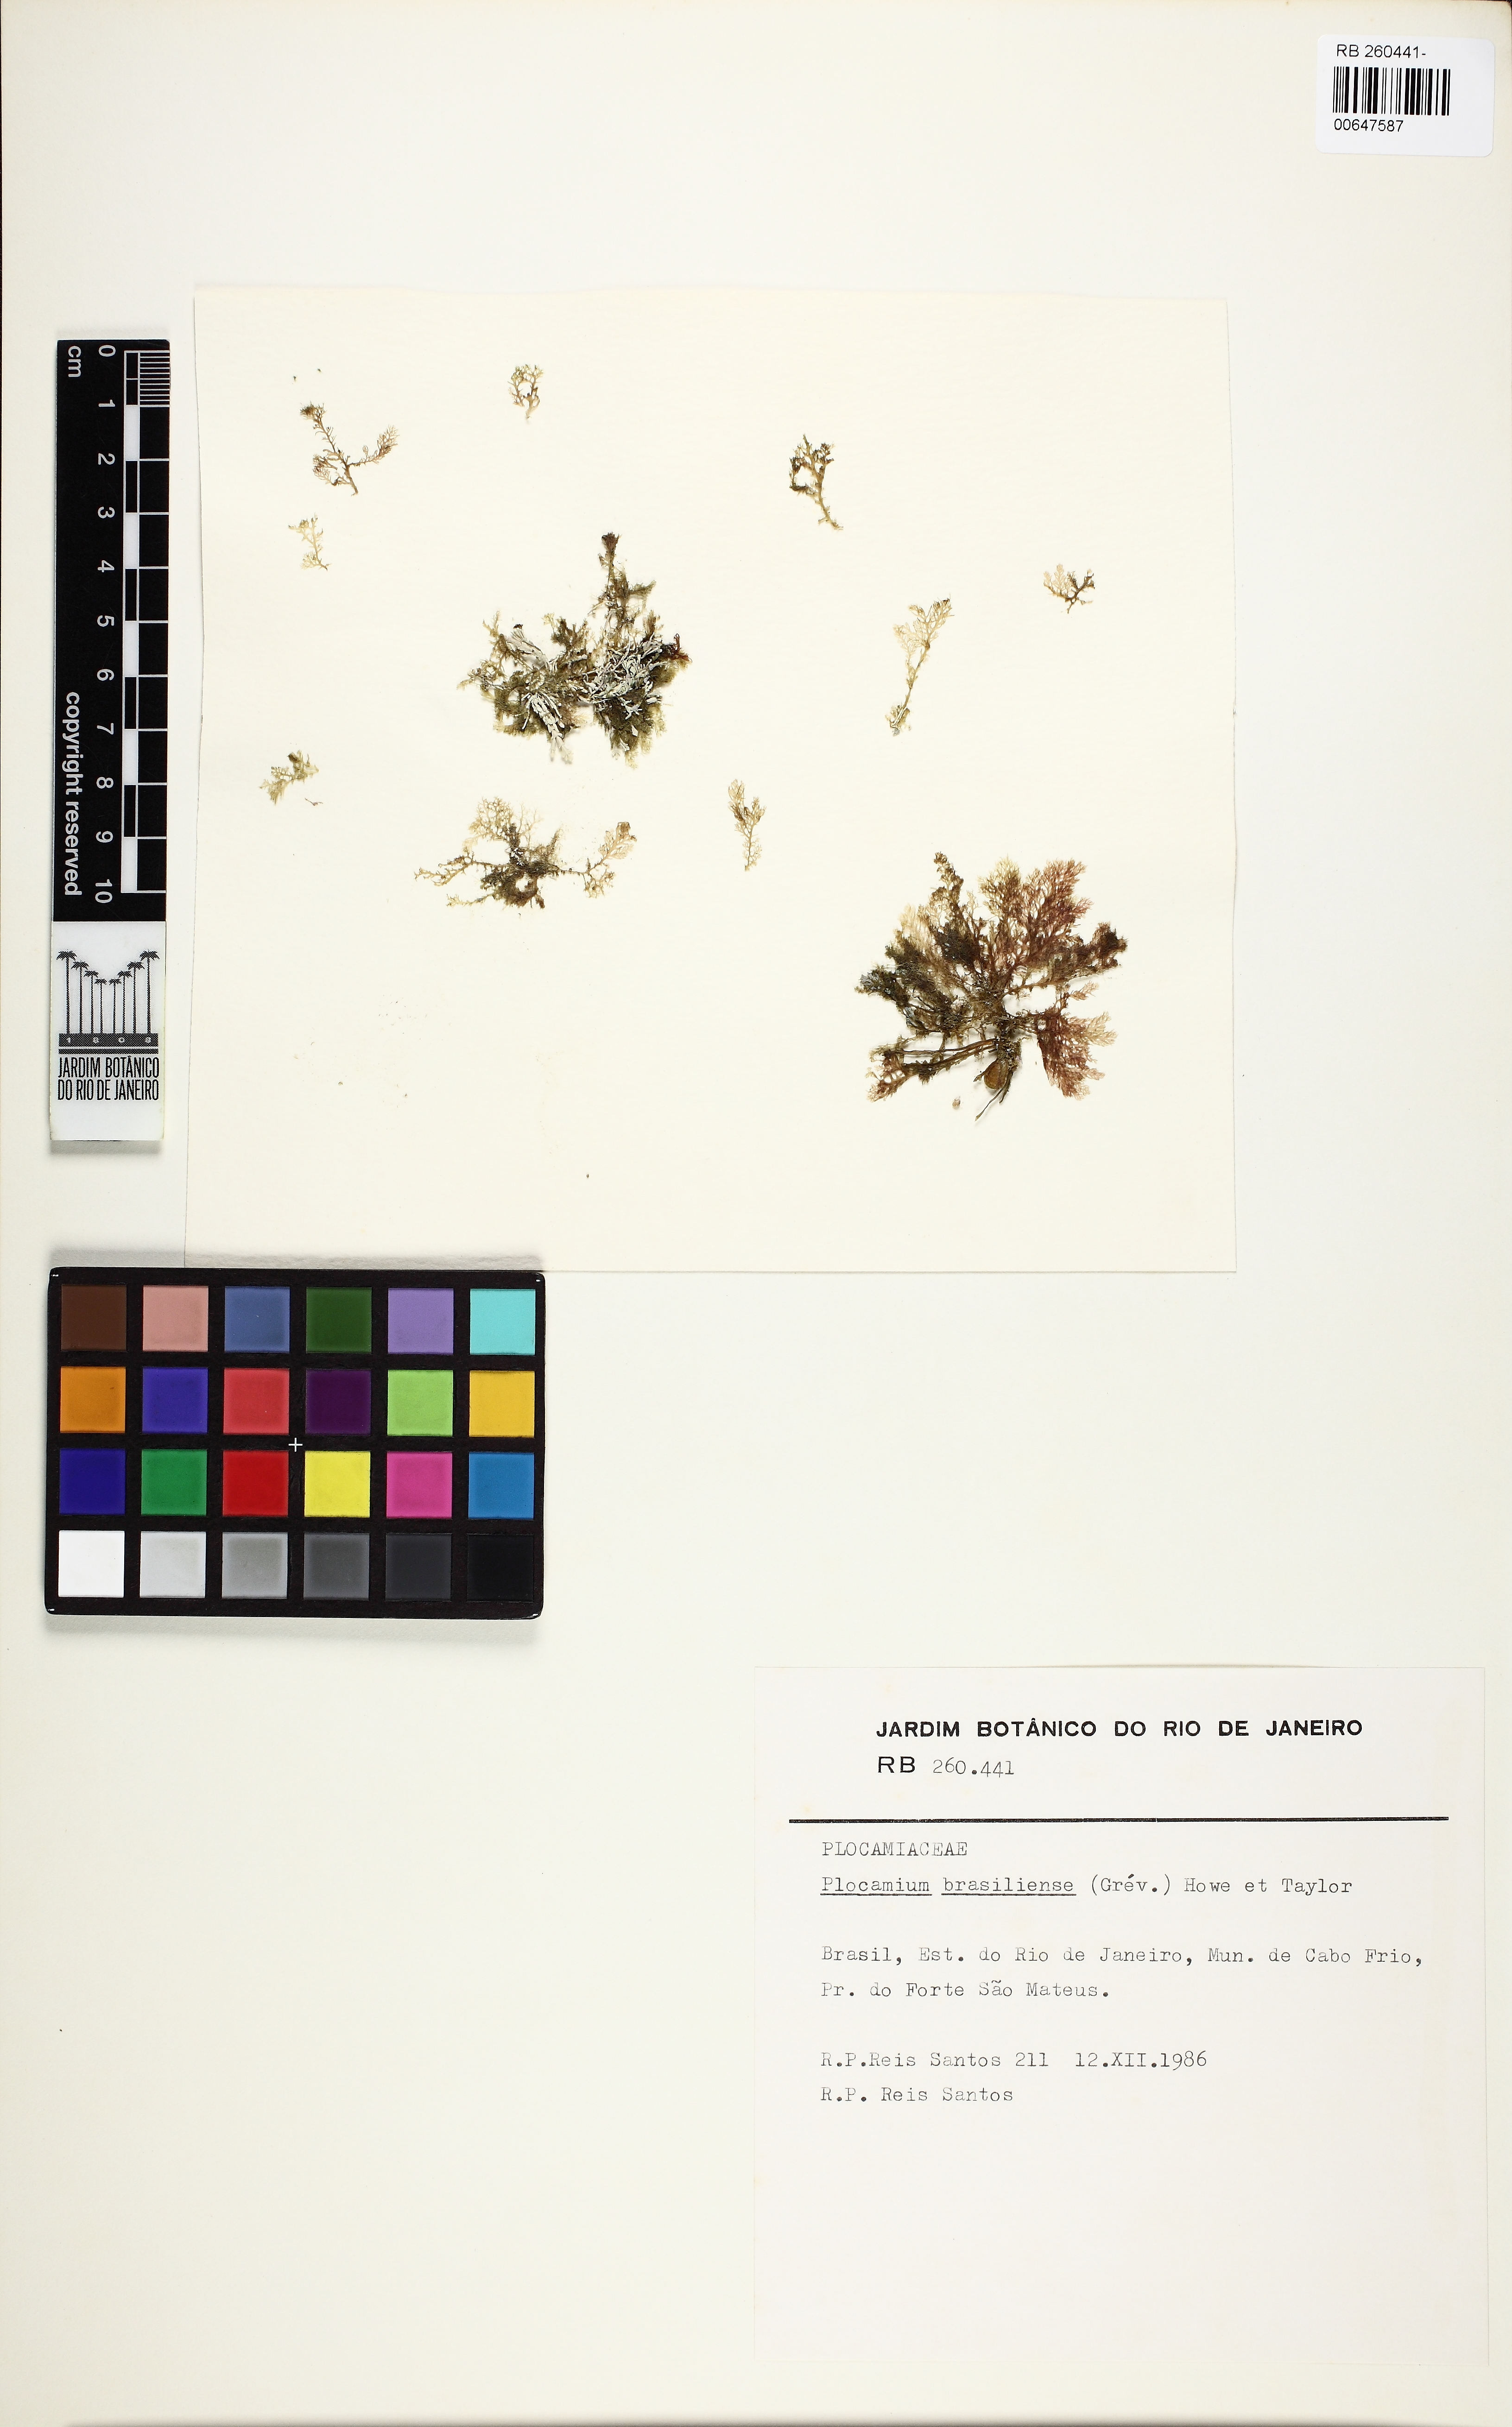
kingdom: Plantae
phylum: Rhodophyta
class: Florideophyceae
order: Plocamiales
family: Plocamiaceae
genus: Plocamium
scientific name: Plocamium brasiliense
